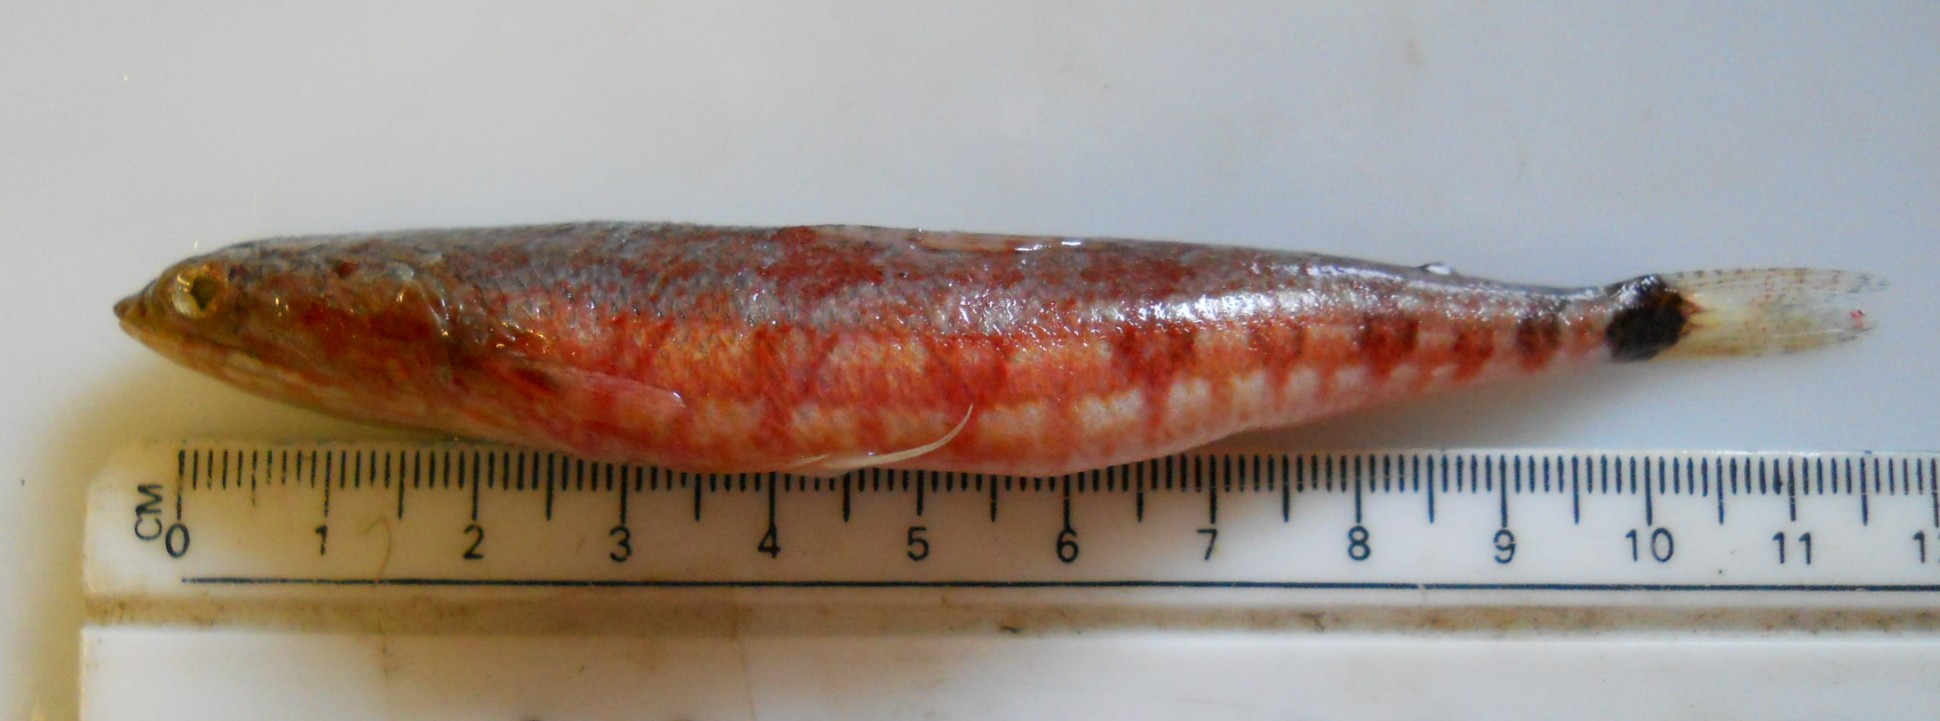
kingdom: Animalia
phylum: Chordata
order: Aulopiformes
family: Synodontidae
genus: Synodus
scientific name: Synodus jaculum
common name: Lighthouse lizardfish
